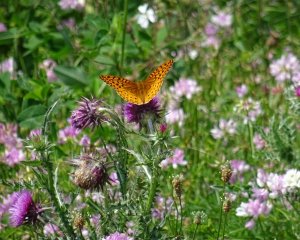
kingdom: Animalia
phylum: Arthropoda
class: Insecta
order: Lepidoptera
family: Nymphalidae
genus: Speyeria
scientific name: Speyeria cybele
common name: Great Spangled Fritillary
